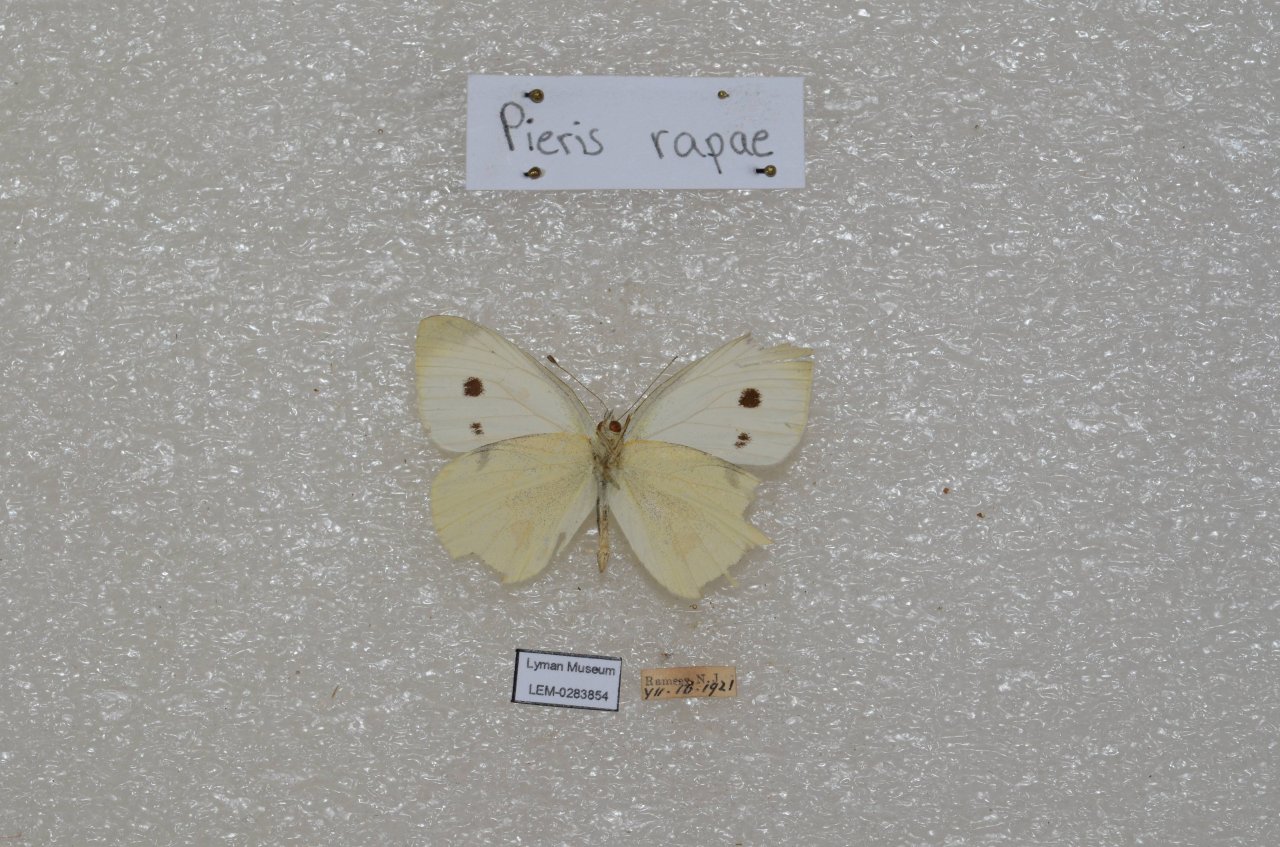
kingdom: Animalia
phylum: Arthropoda
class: Insecta
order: Lepidoptera
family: Pieridae
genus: Pieris
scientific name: Pieris rapae
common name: Cabbage White
